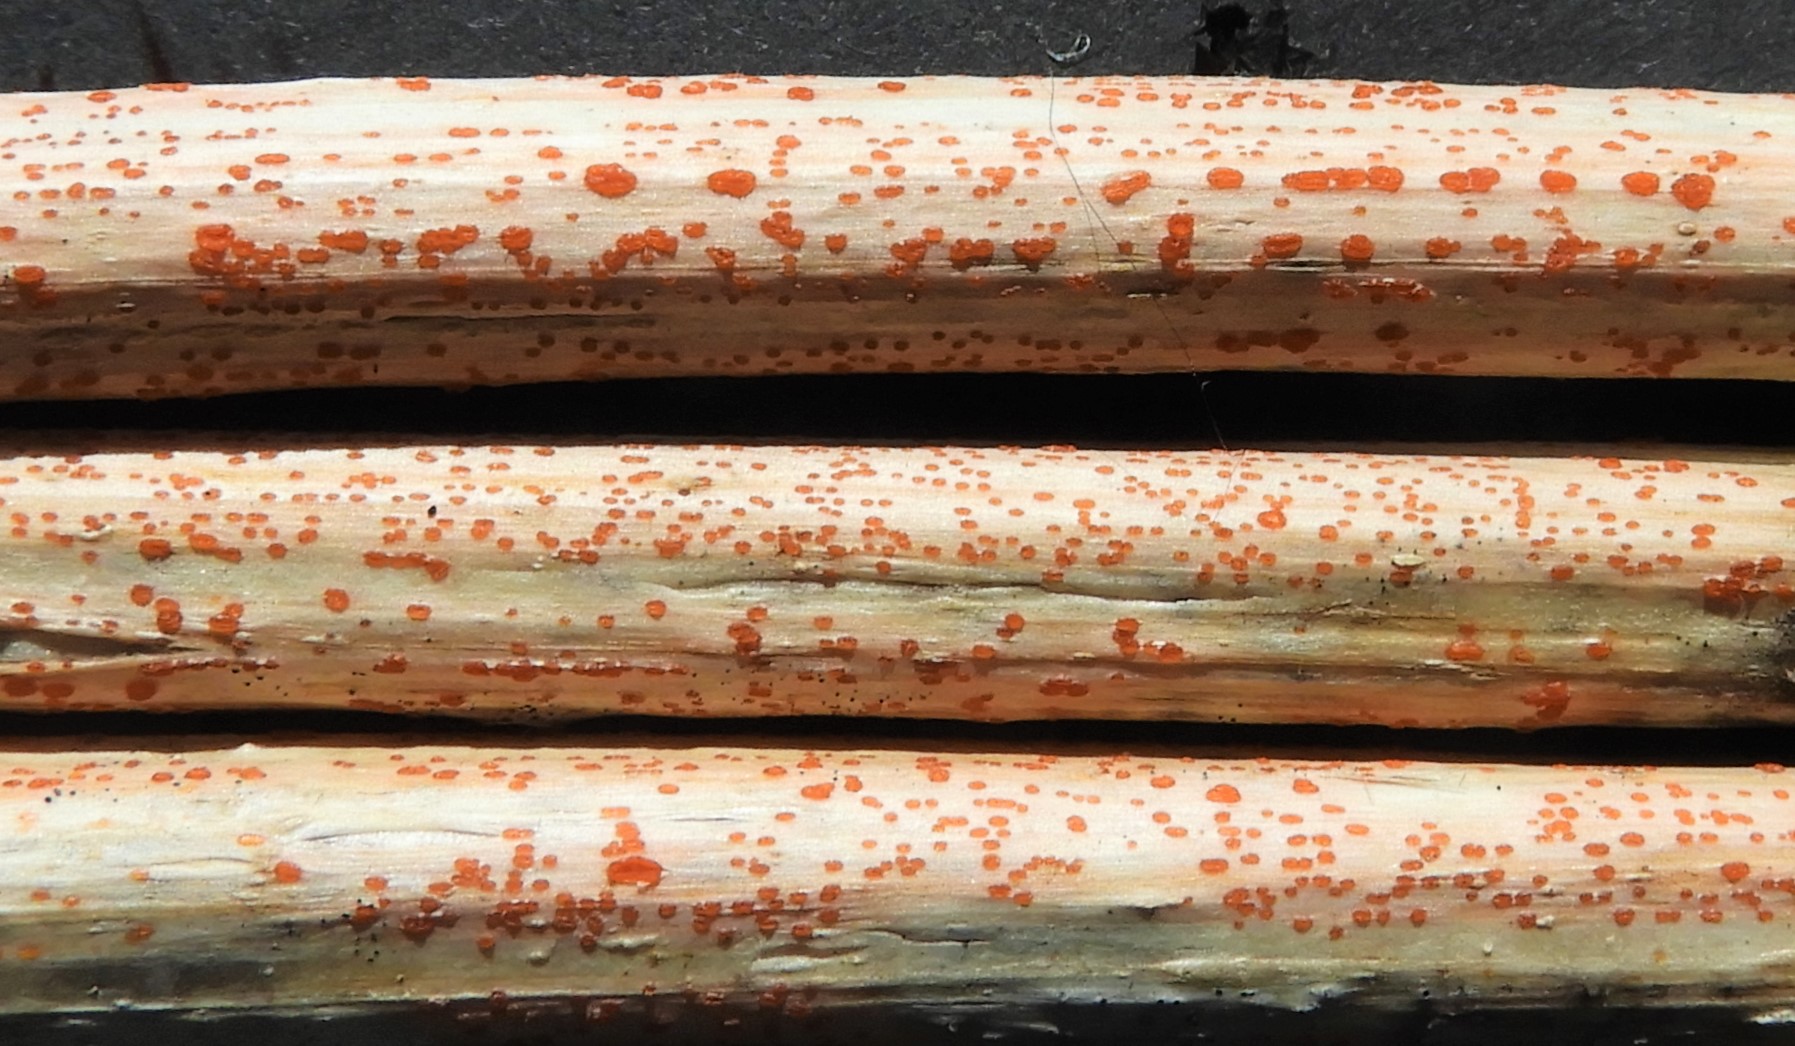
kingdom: Fungi
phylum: Ascomycota
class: Leotiomycetes
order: Helotiales
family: Calloriaceae
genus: Calloria
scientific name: Calloria urticae
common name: nælde-orangeskive
